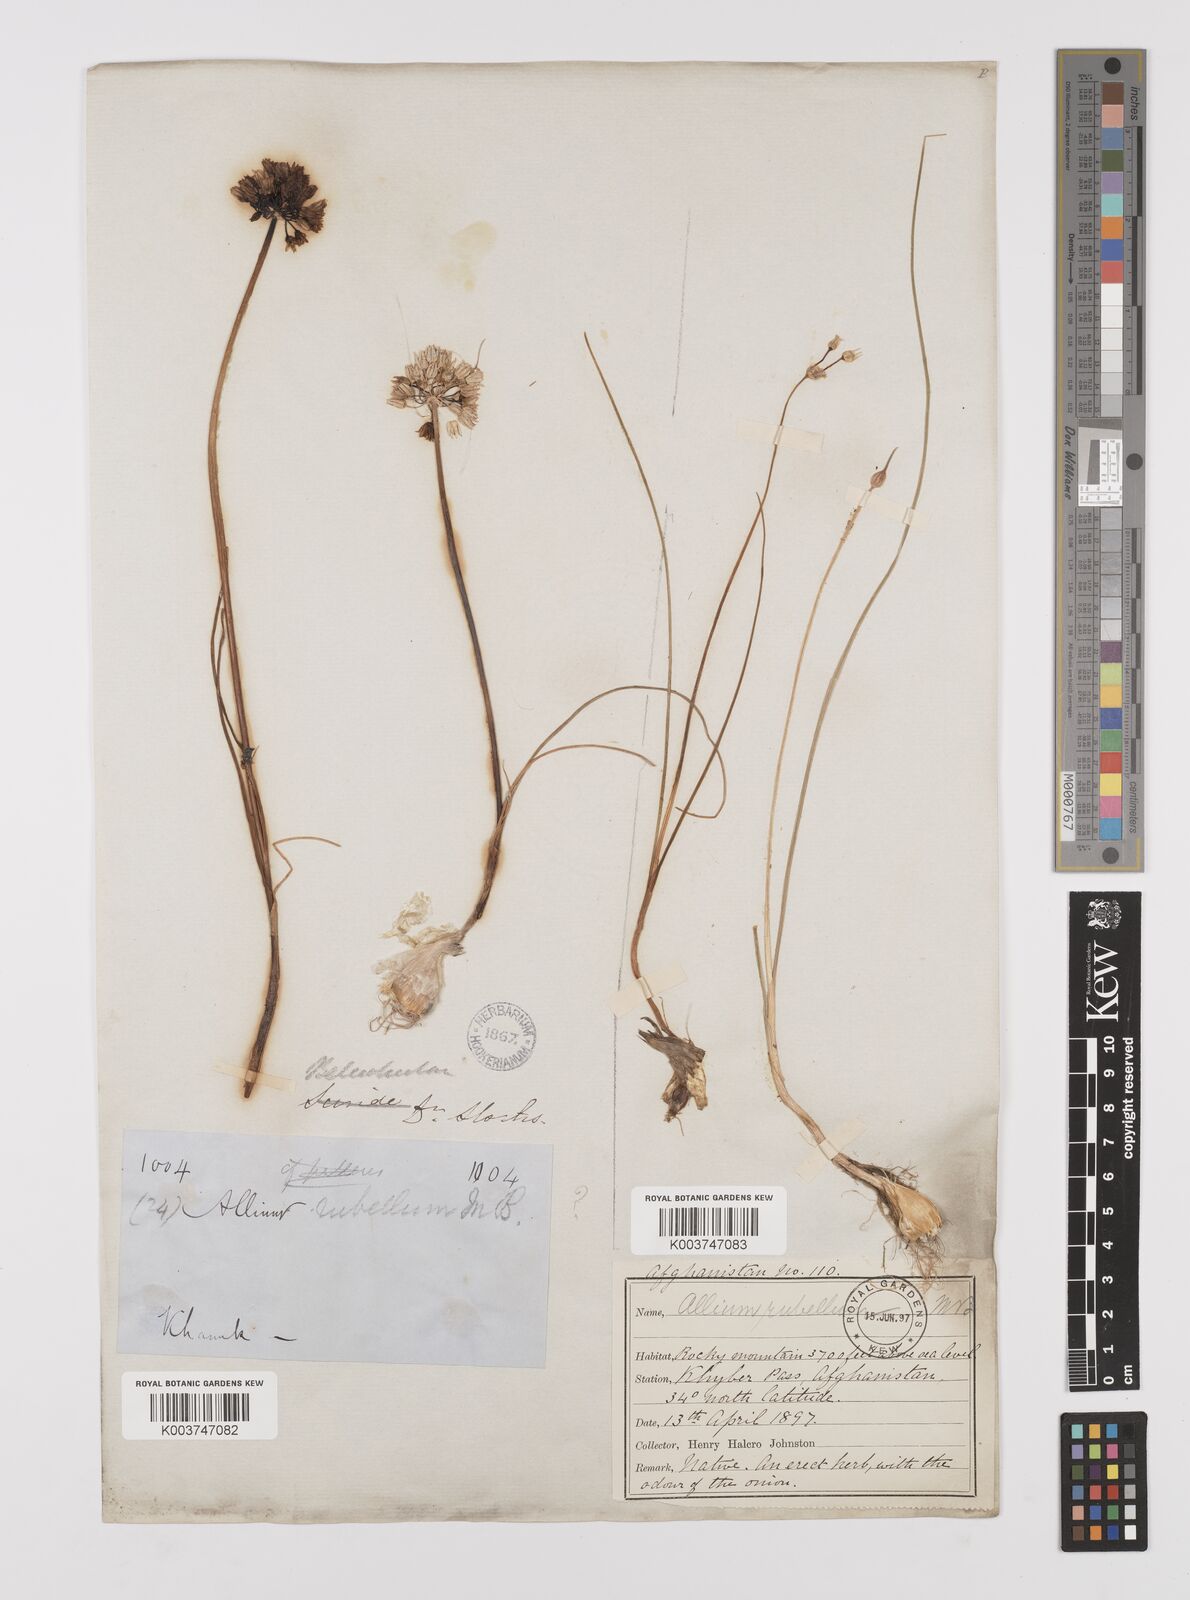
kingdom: Plantae
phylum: Tracheophyta
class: Liliopsida
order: Asparagales
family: Amaryllidaceae
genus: Allium
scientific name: Allium rubellum
